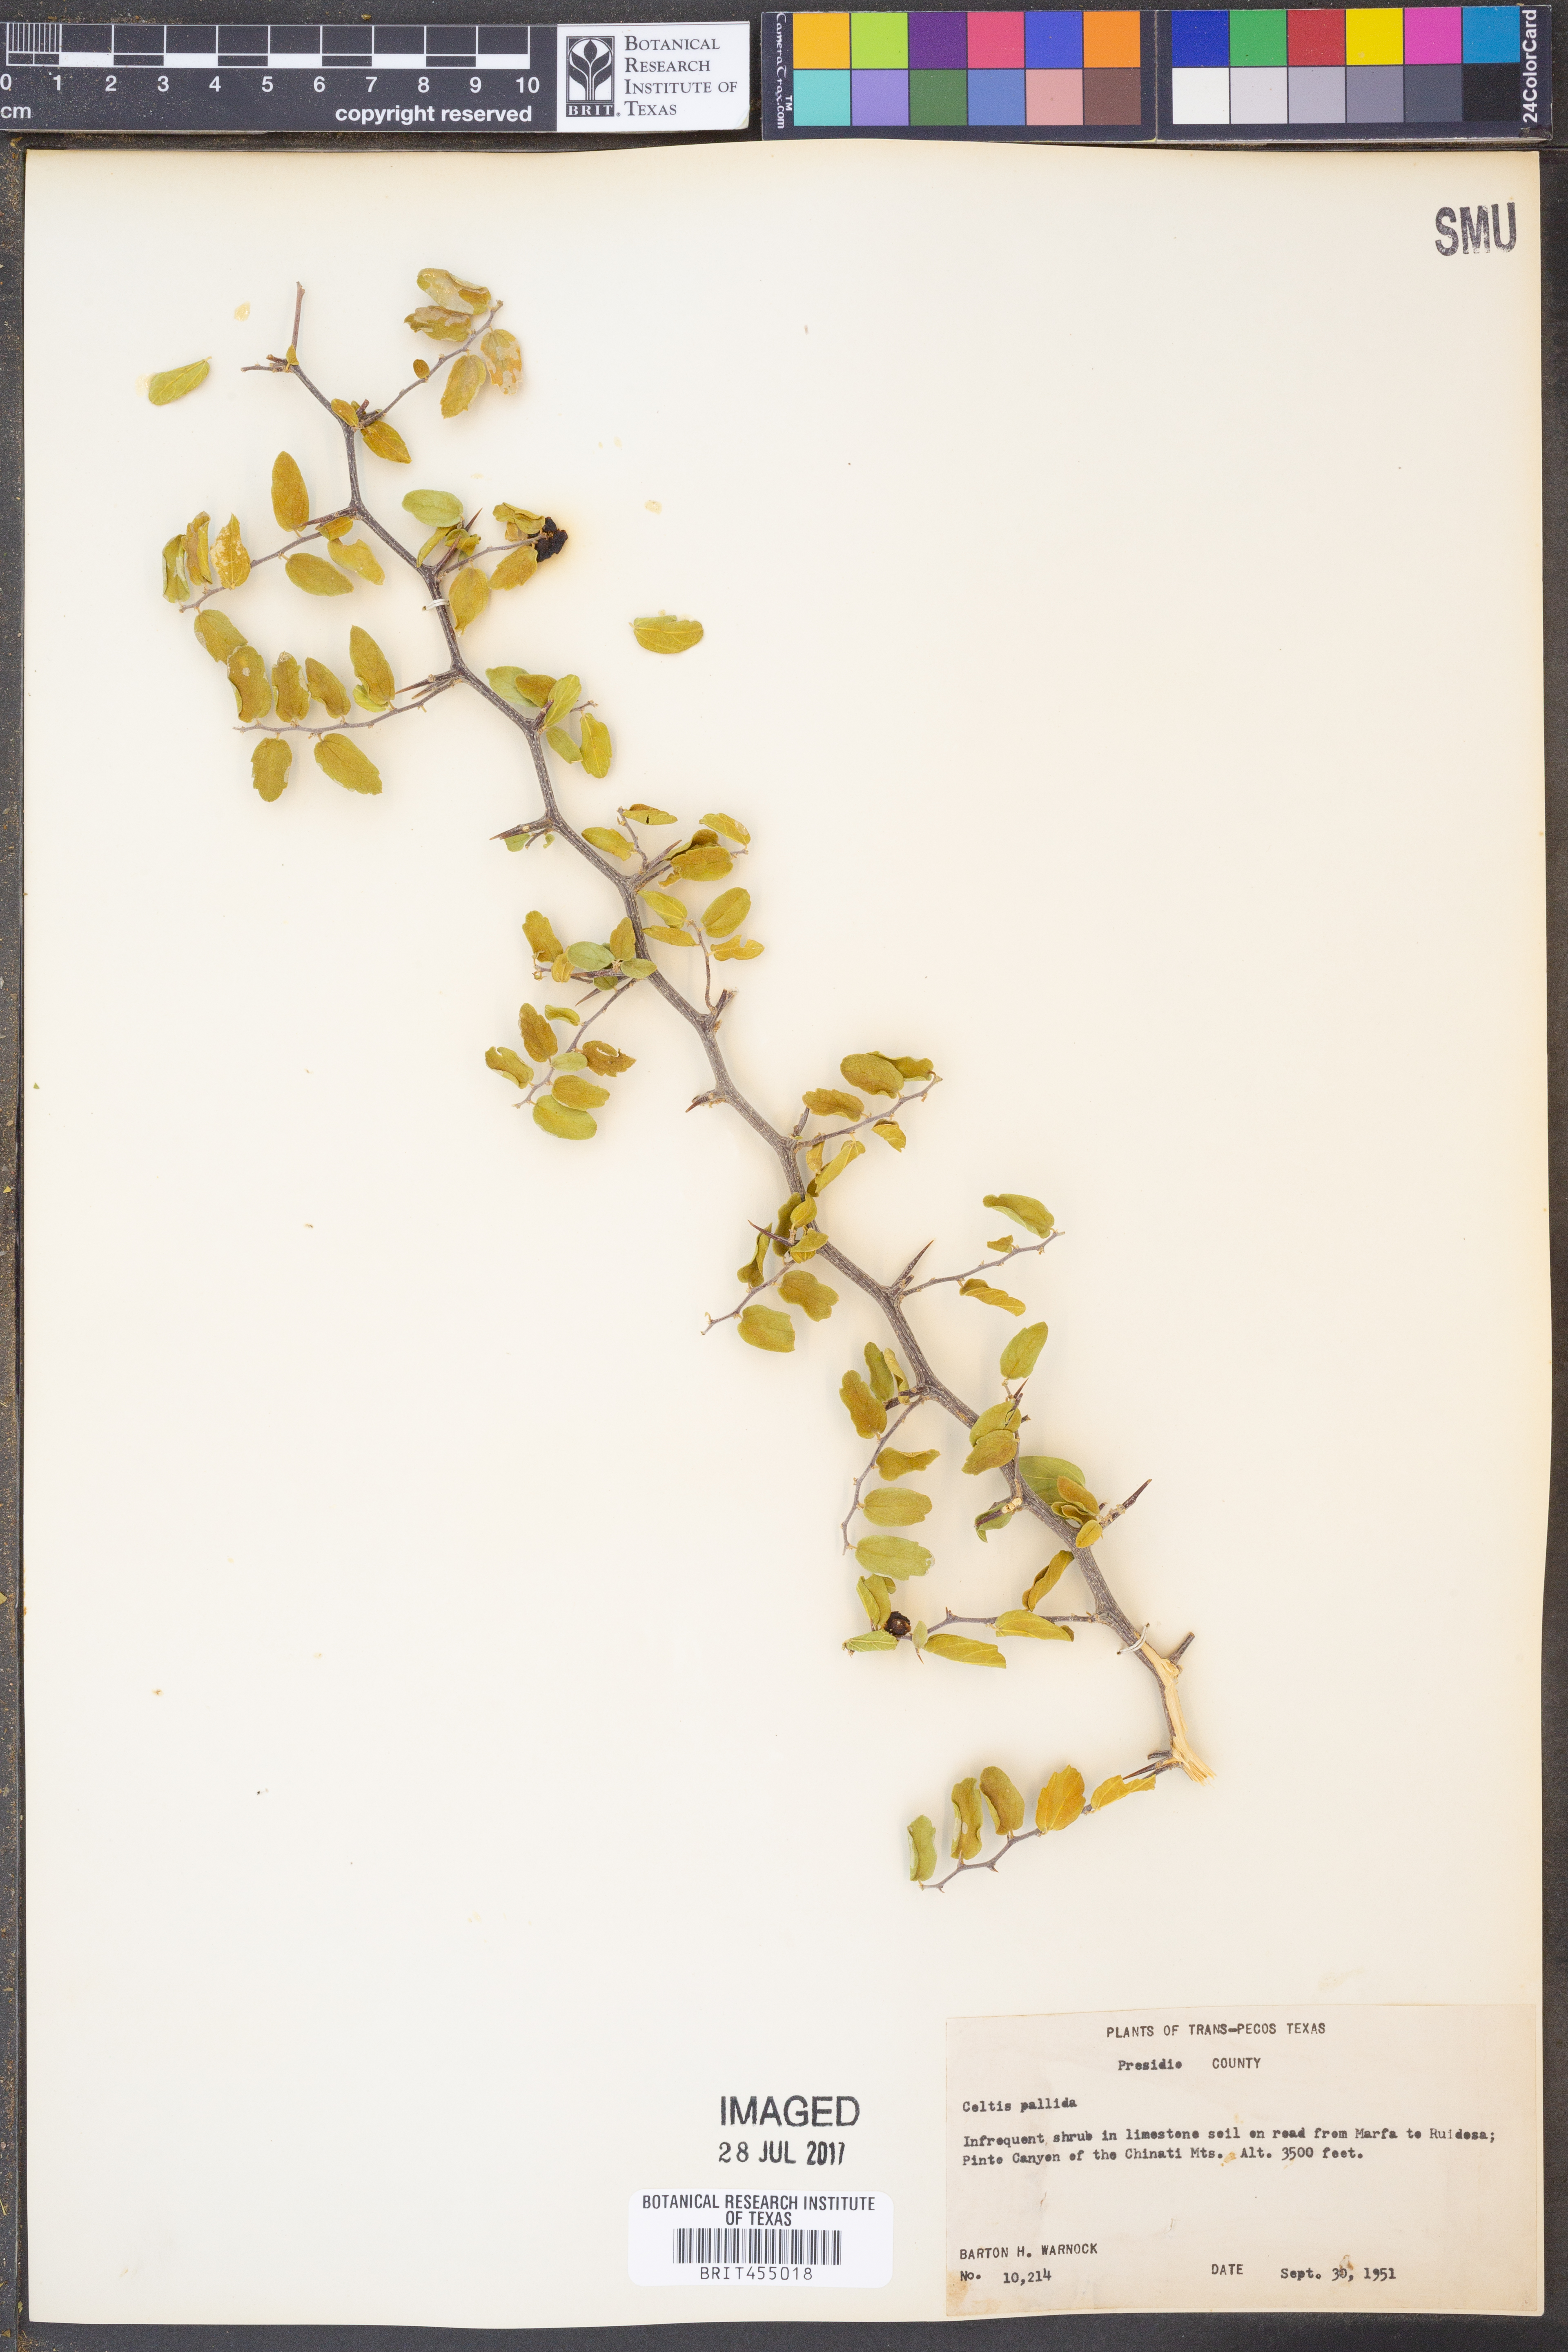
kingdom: Plantae
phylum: Tracheophyta
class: Magnoliopsida
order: Rosales
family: Cannabaceae
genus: Celtis
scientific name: Celtis pallida
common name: Desert hackberry
